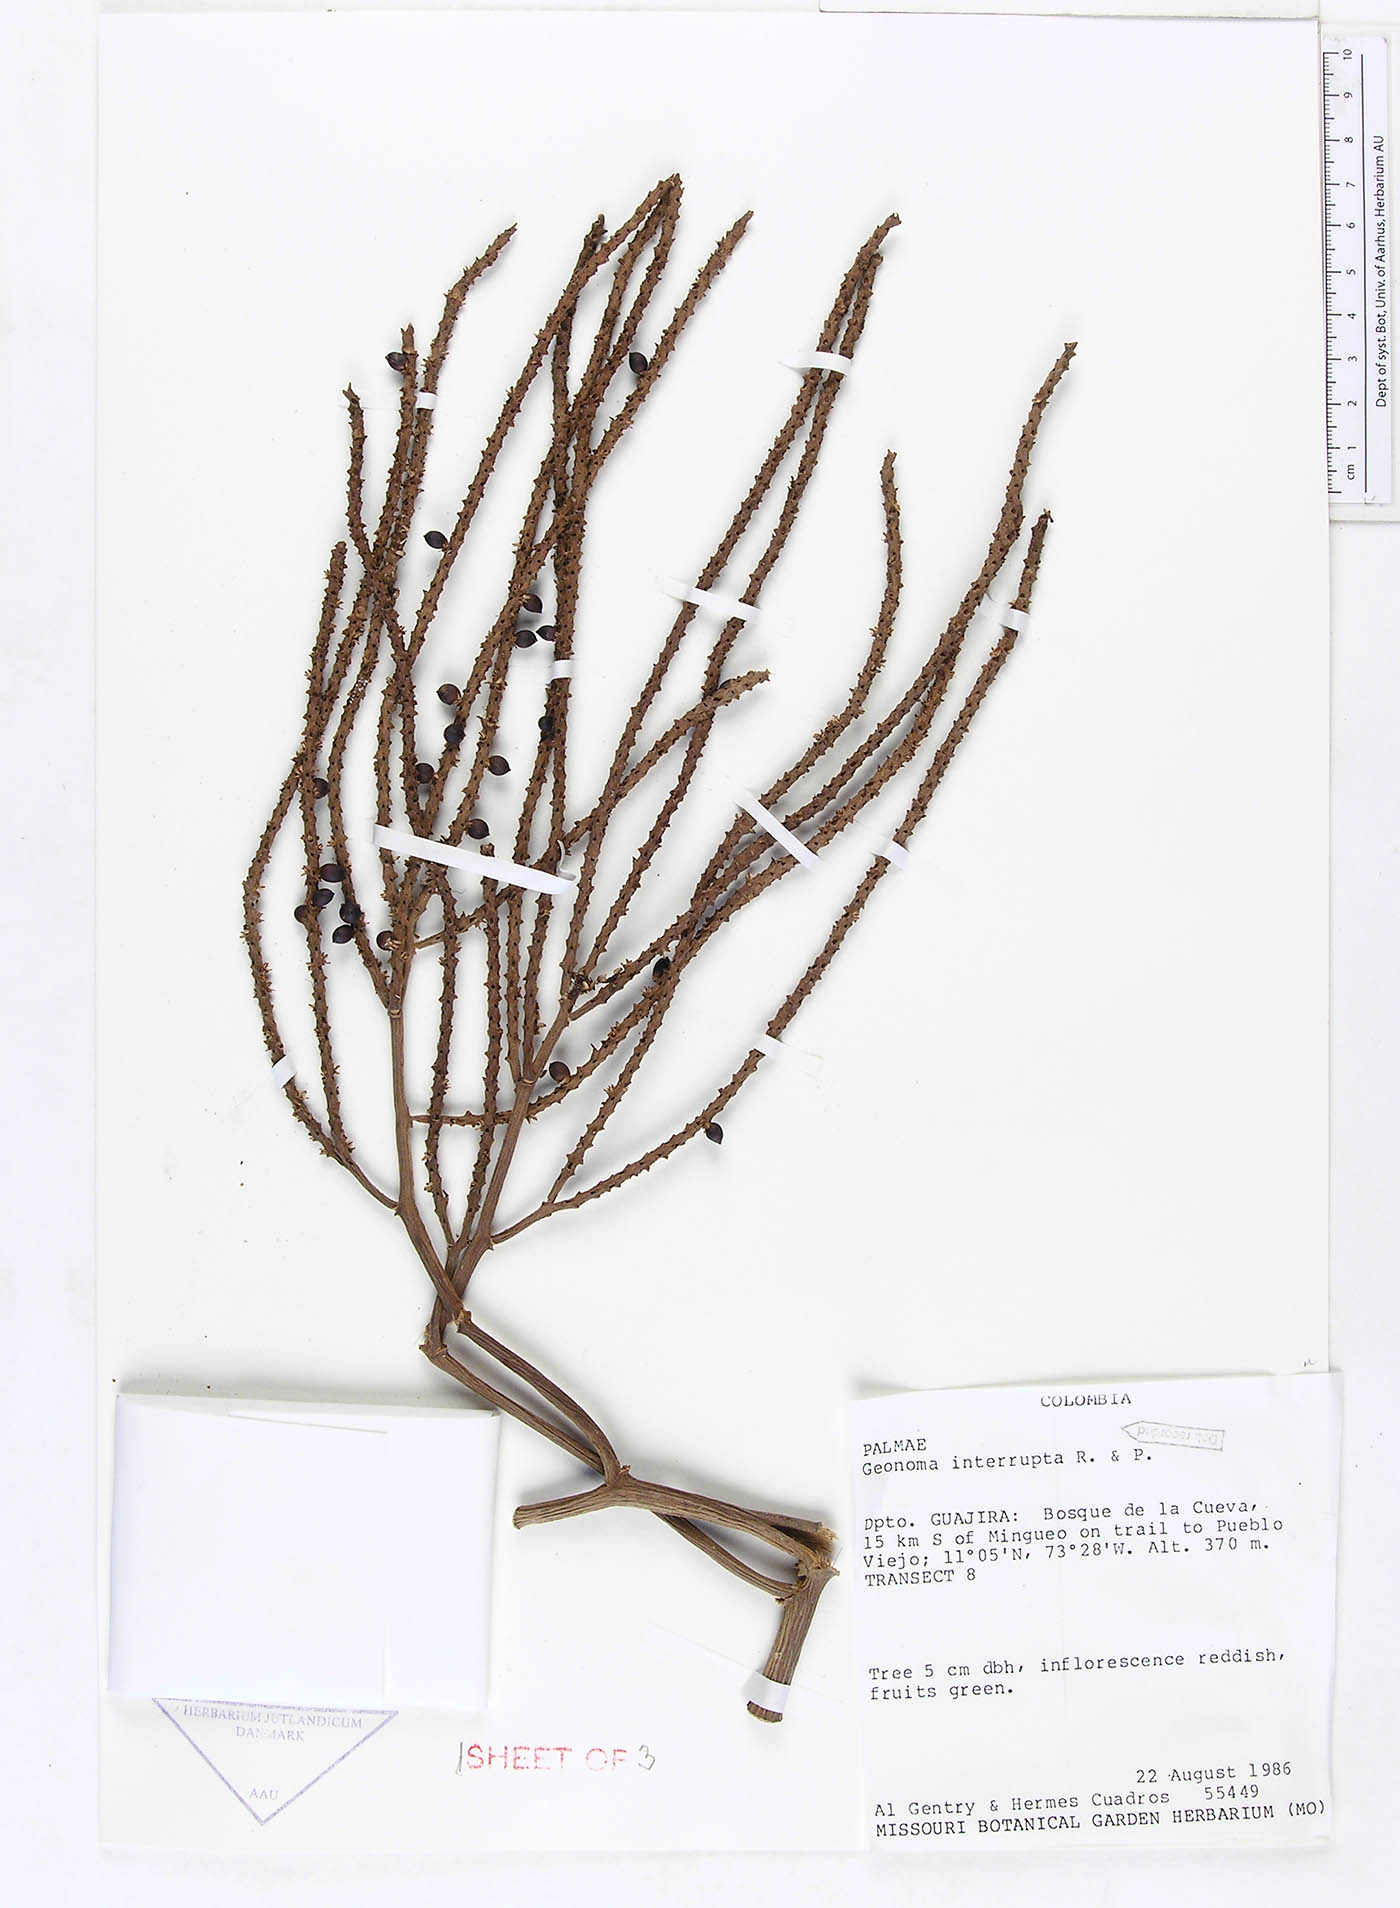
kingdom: Plantae
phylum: Tracheophyta
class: Liliopsida
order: Arecales
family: Arecaceae
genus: Geonoma
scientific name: Geonoma interrupta
